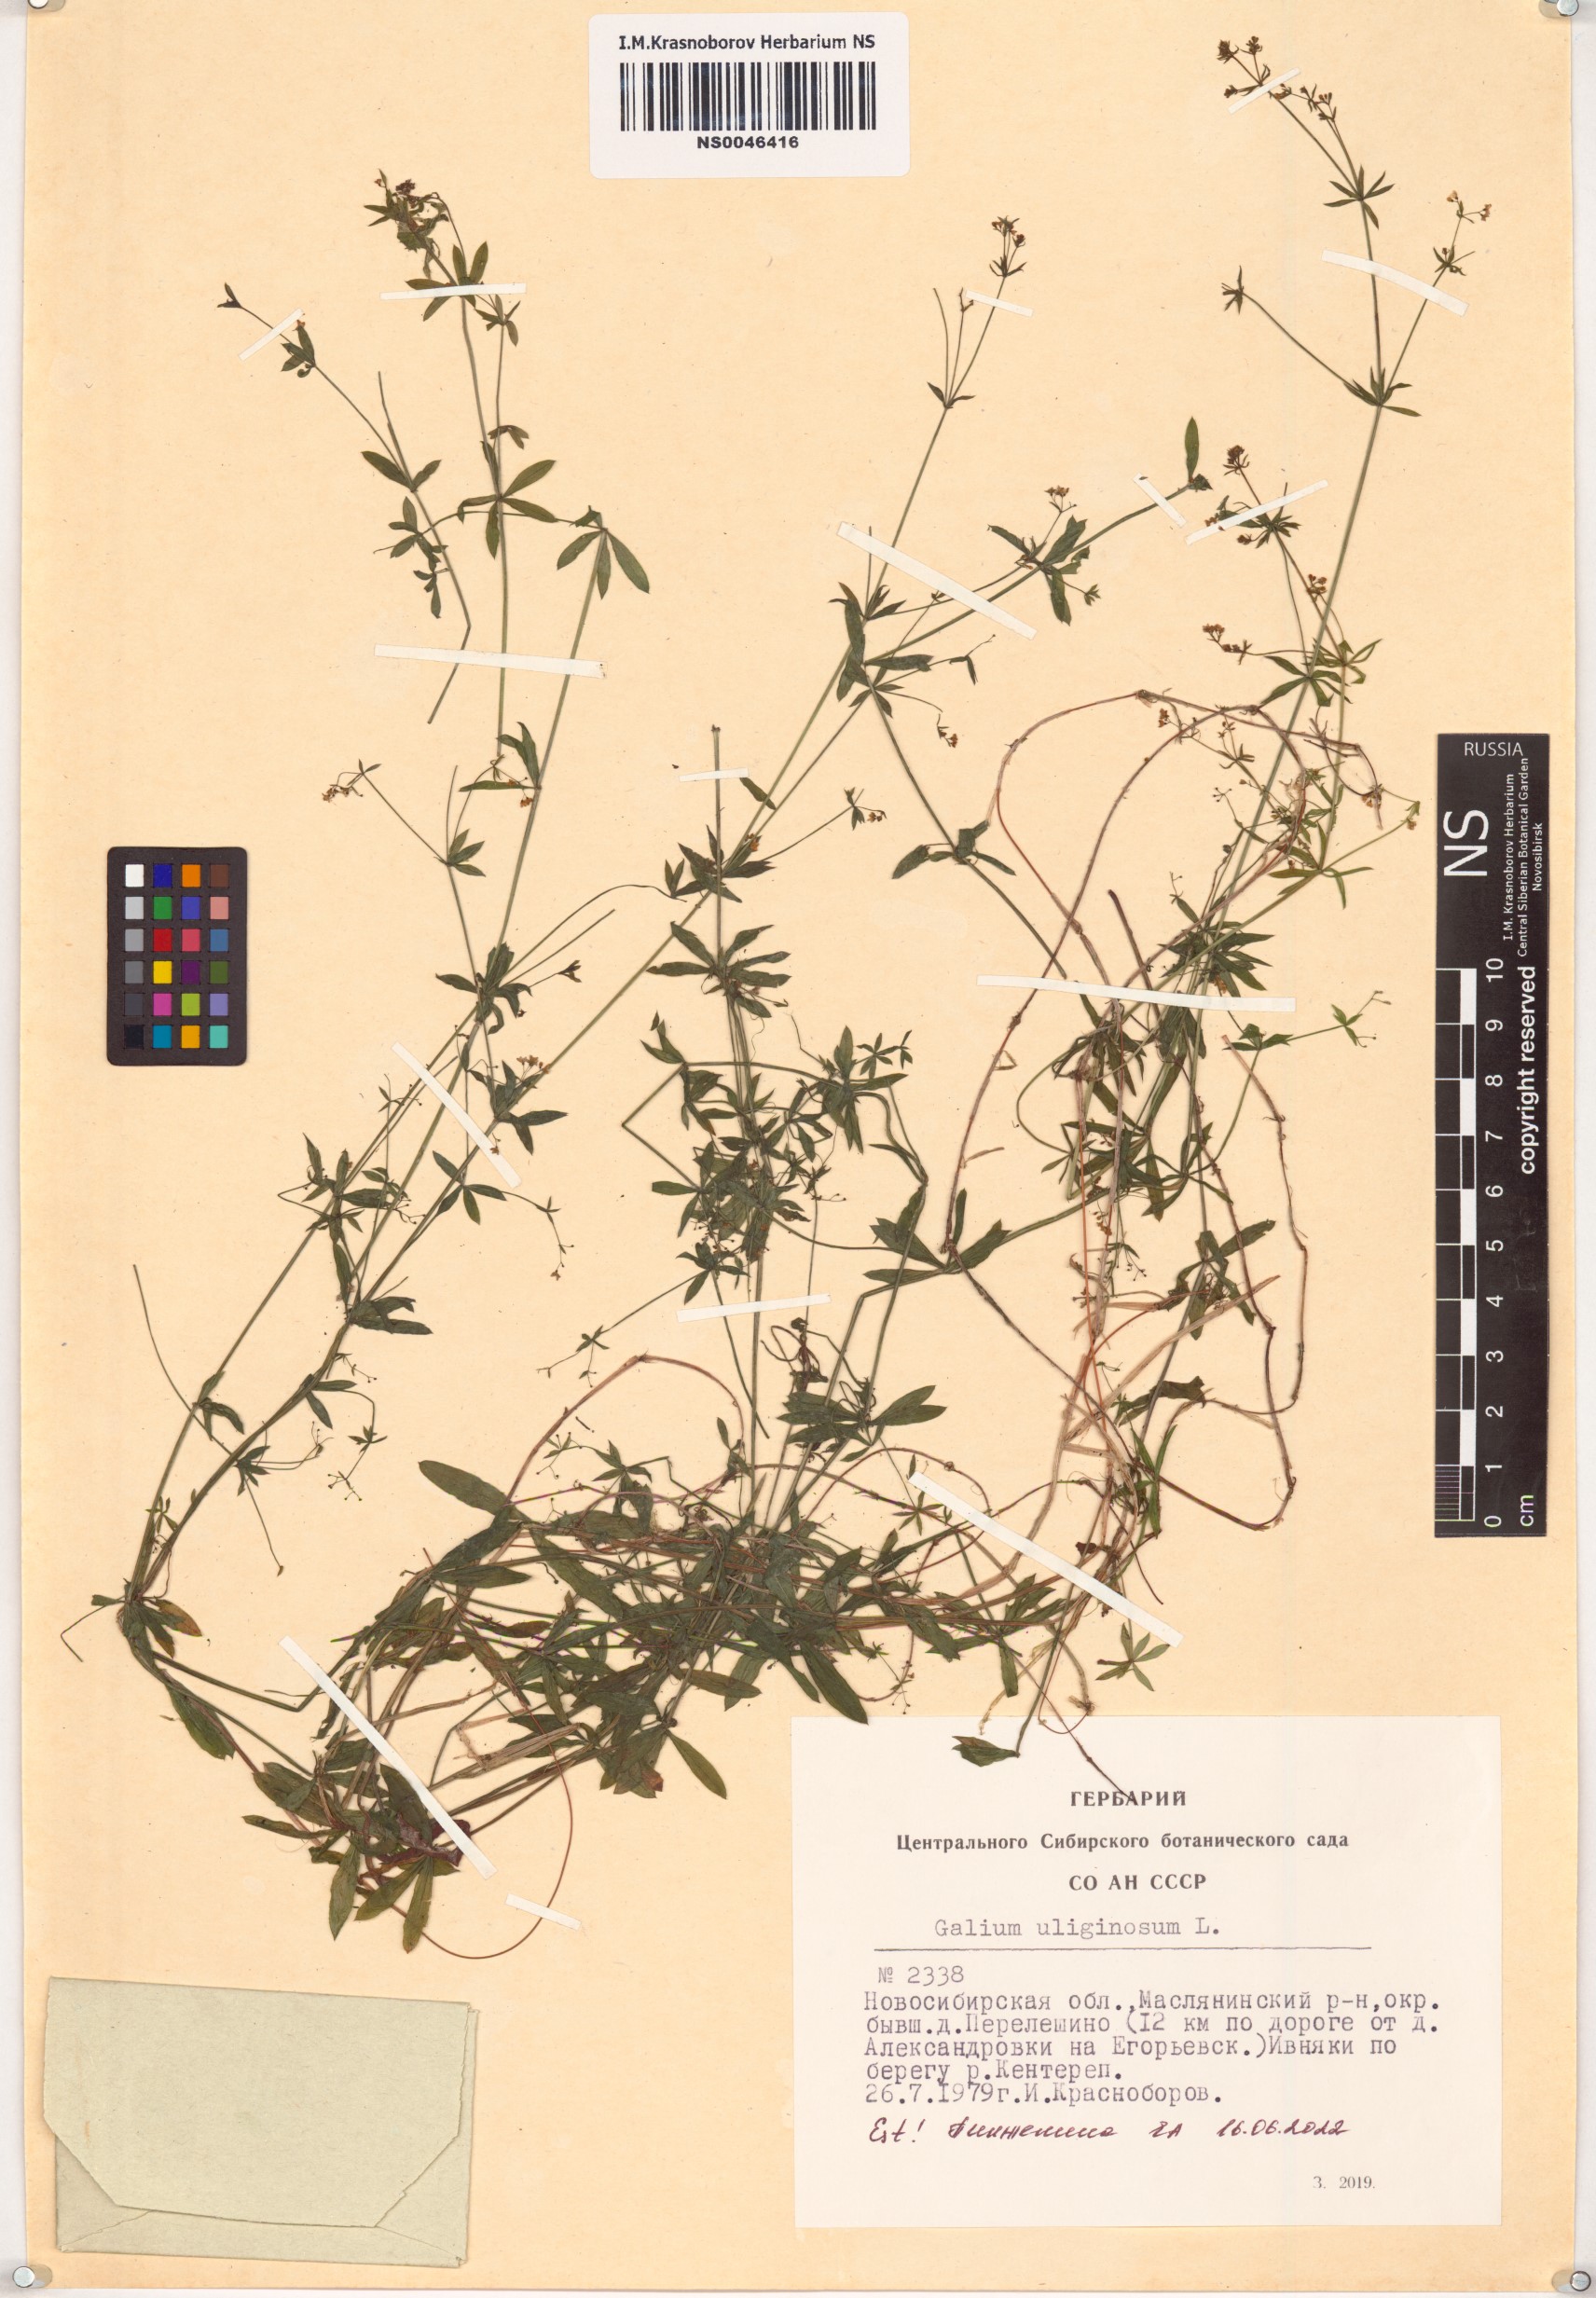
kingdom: Plantae
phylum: Tracheophyta
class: Magnoliopsida
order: Gentianales
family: Rubiaceae
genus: Galium
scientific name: Galium uliginosum
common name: Fen bedstraw
